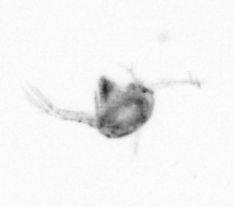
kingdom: Animalia
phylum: Arthropoda
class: Copepoda
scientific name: Copepoda
